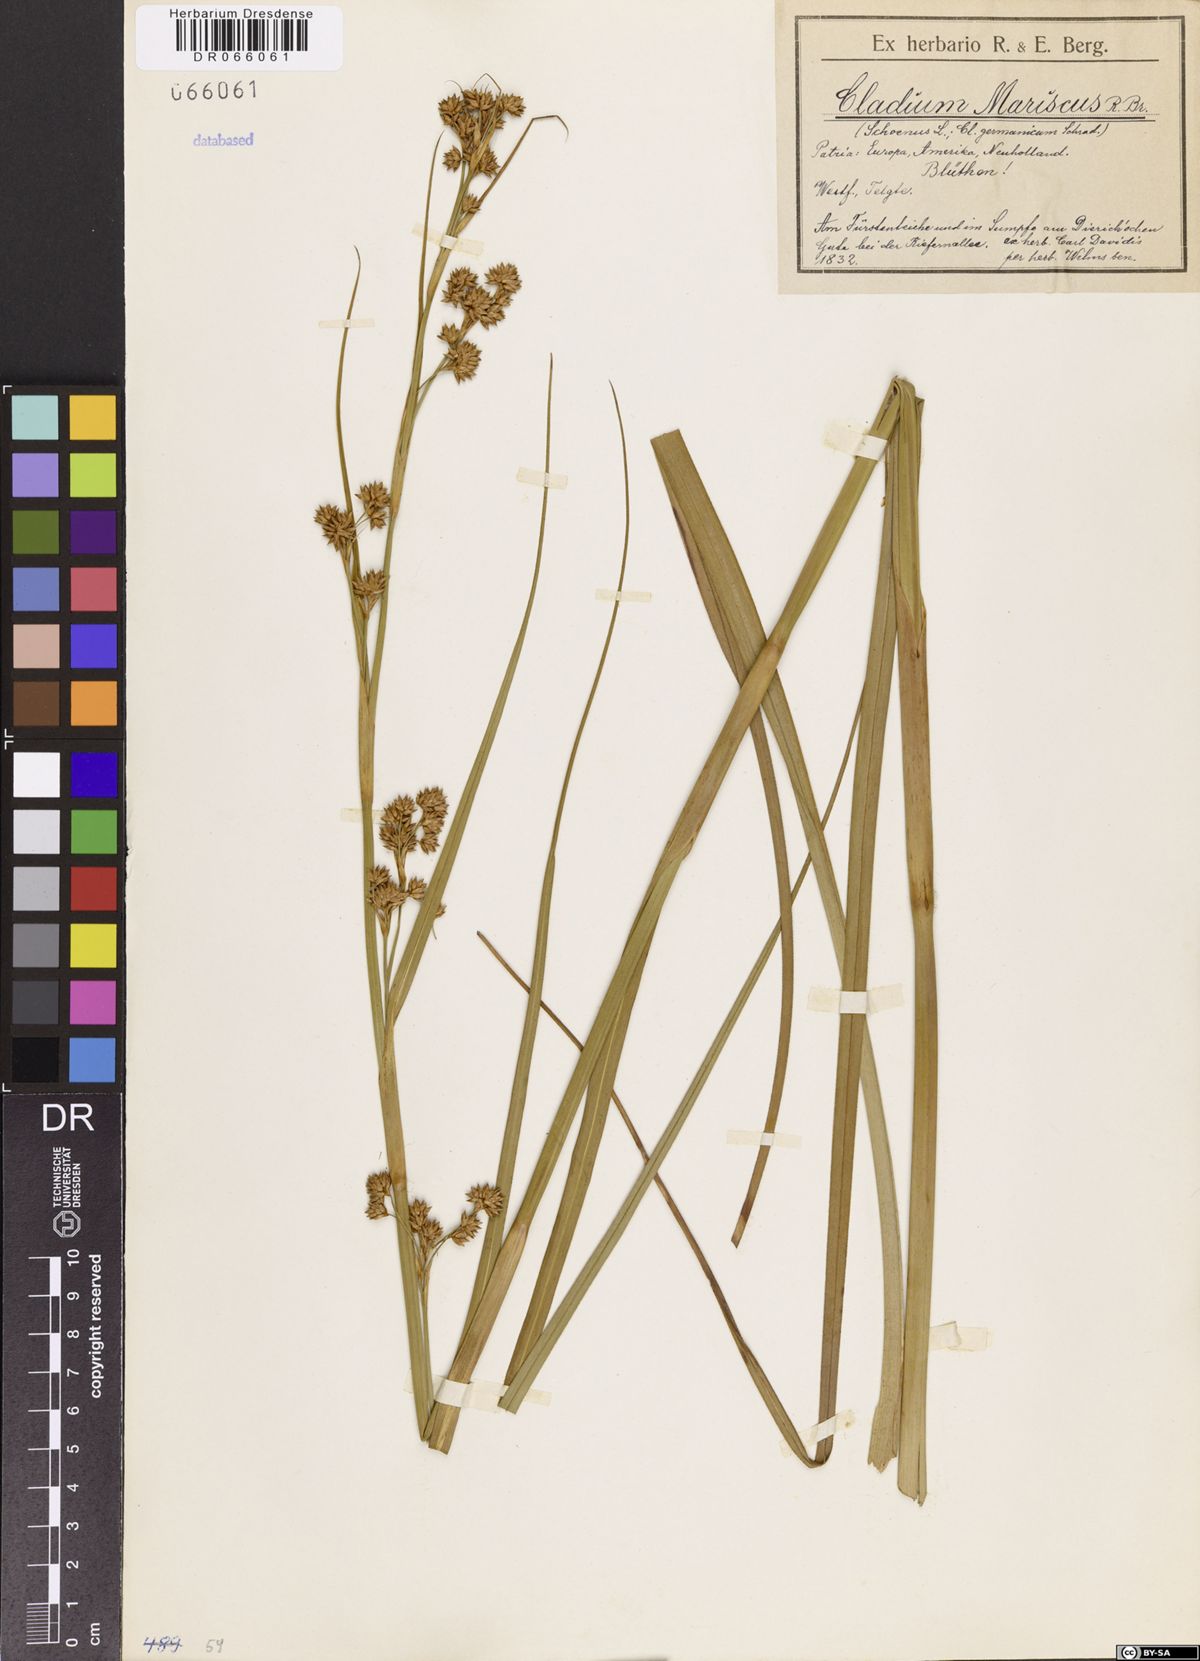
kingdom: Plantae
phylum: Tracheophyta
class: Liliopsida
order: Poales
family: Cyperaceae
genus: Cladium
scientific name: Cladium mariscus
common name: Great fen-sedge
